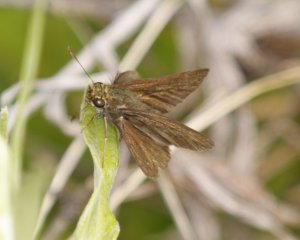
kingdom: Animalia
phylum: Arthropoda
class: Insecta
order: Lepidoptera
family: Hesperiidae
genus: Euphyes
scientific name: Euphyes vestris
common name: Dun Skipper
